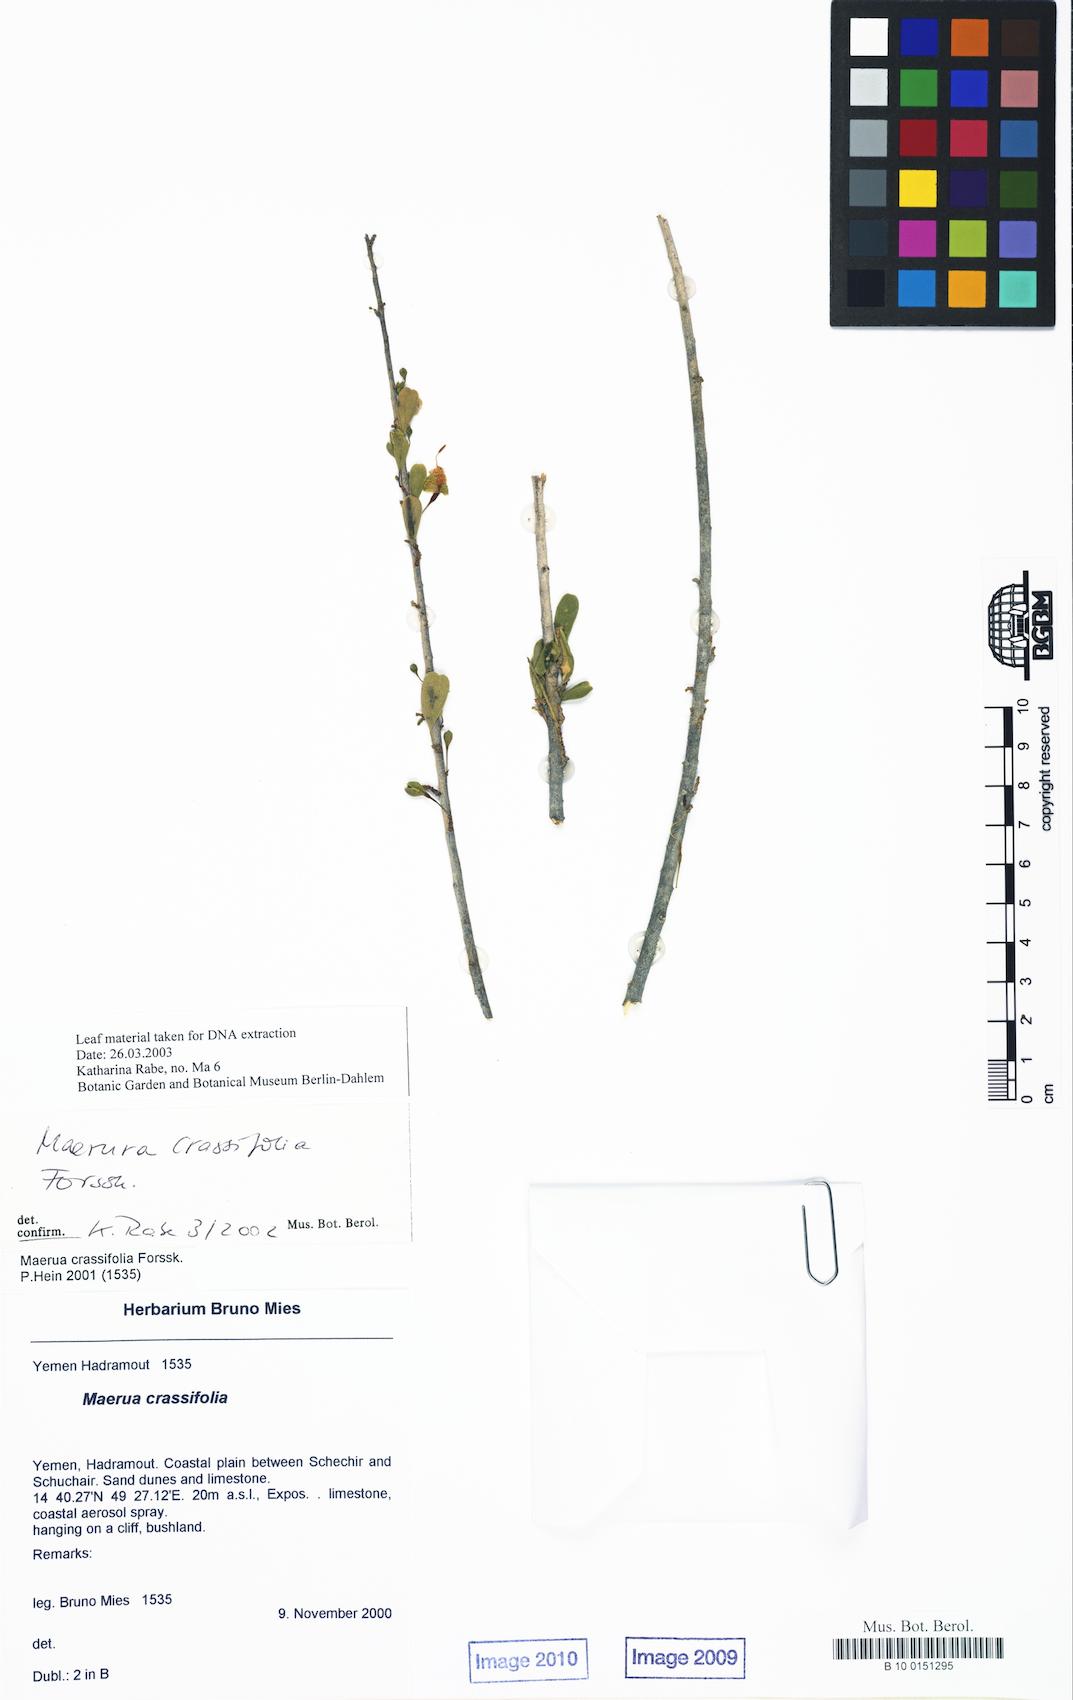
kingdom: Plantae
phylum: Tracheophyta
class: Magnoliopsida
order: Brassicales
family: Capparaceae
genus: Maerua
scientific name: Maerua crassifolia
